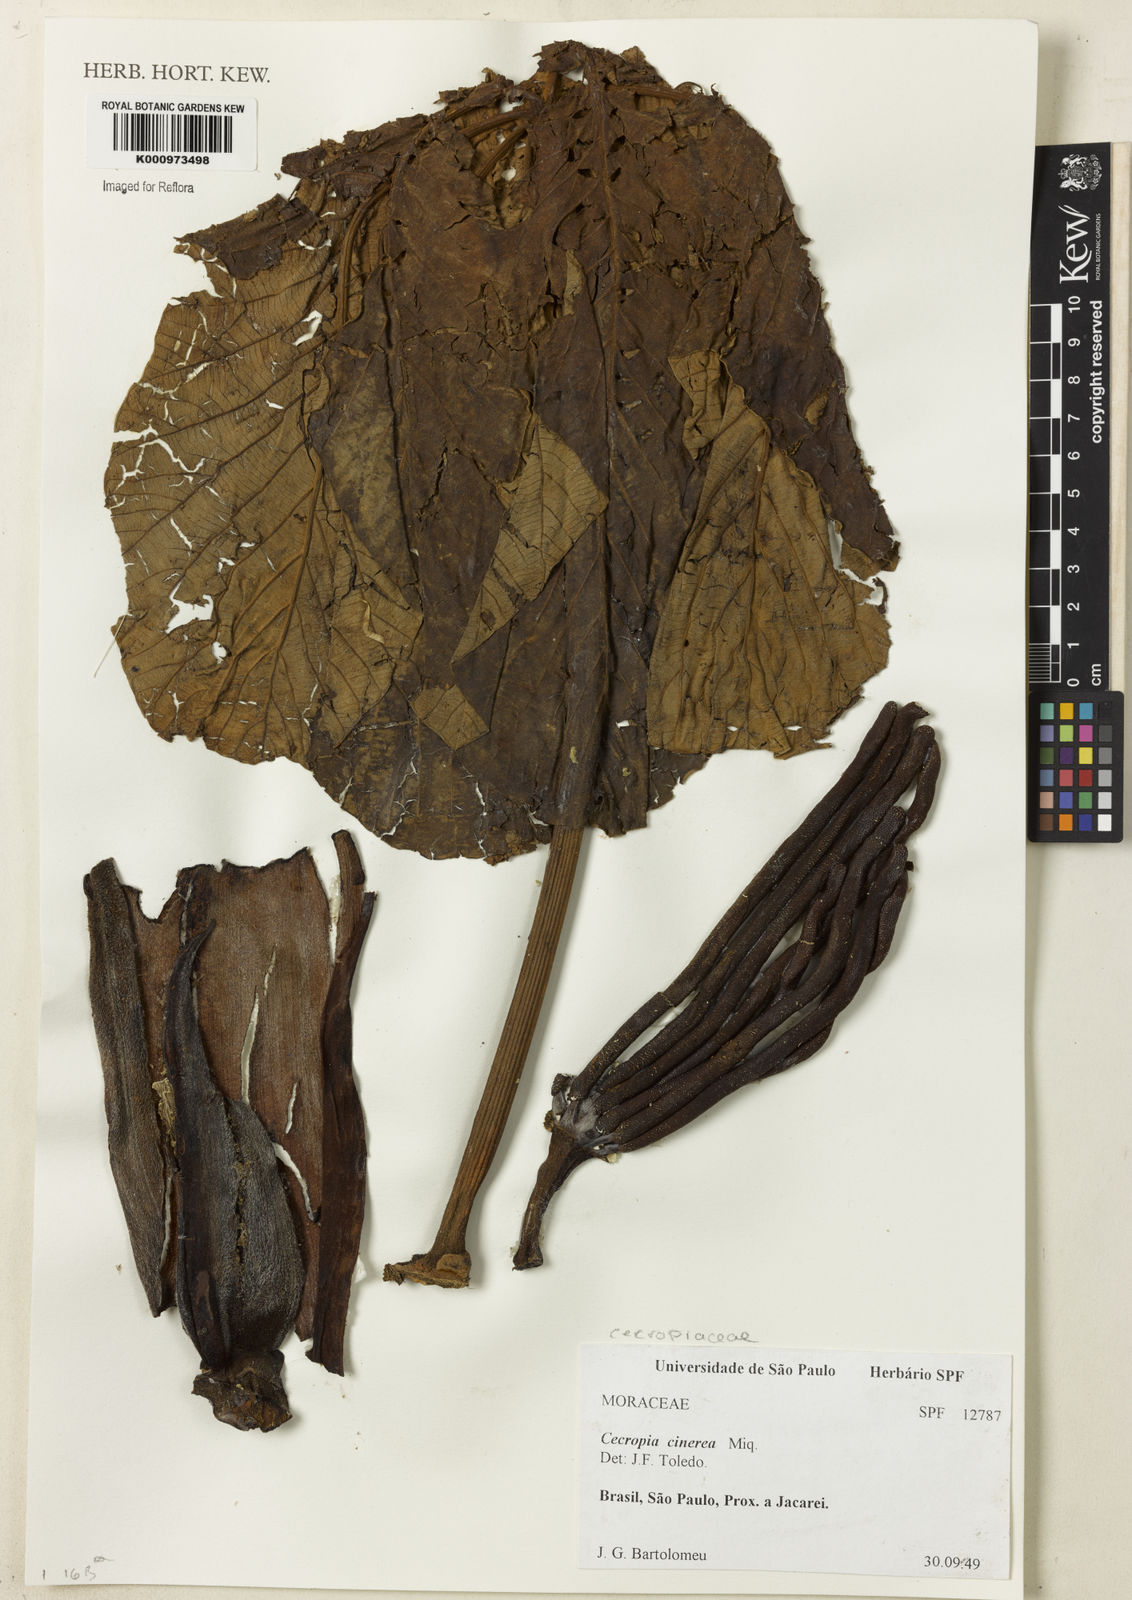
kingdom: Plantae
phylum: Tracheophyta
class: Magnoliopsida
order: Rosales
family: Urticaceae
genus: Cecropia
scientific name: Cecropia pachystachya
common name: Ambay pumpwood
